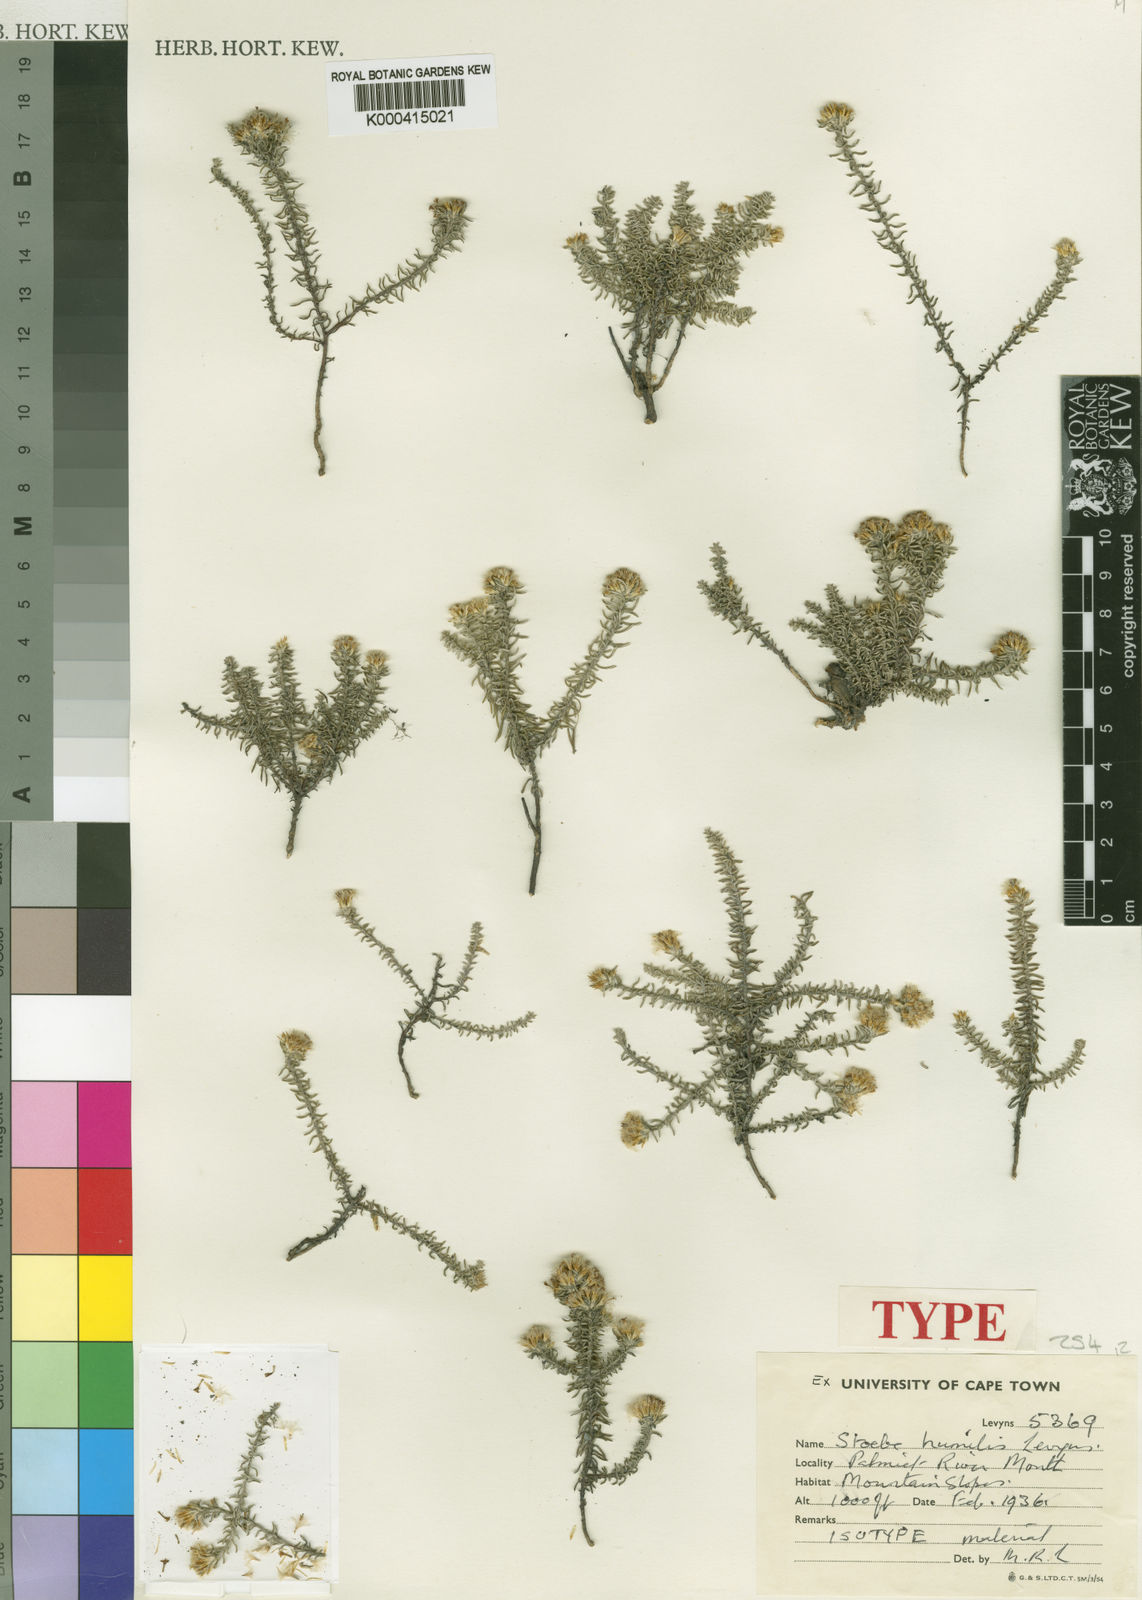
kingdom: Plantae
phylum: Tracheophyta
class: Magnoliopsida
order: Asterales
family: Asteraceae
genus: Stoebe
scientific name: Stoebe cyathuloides
